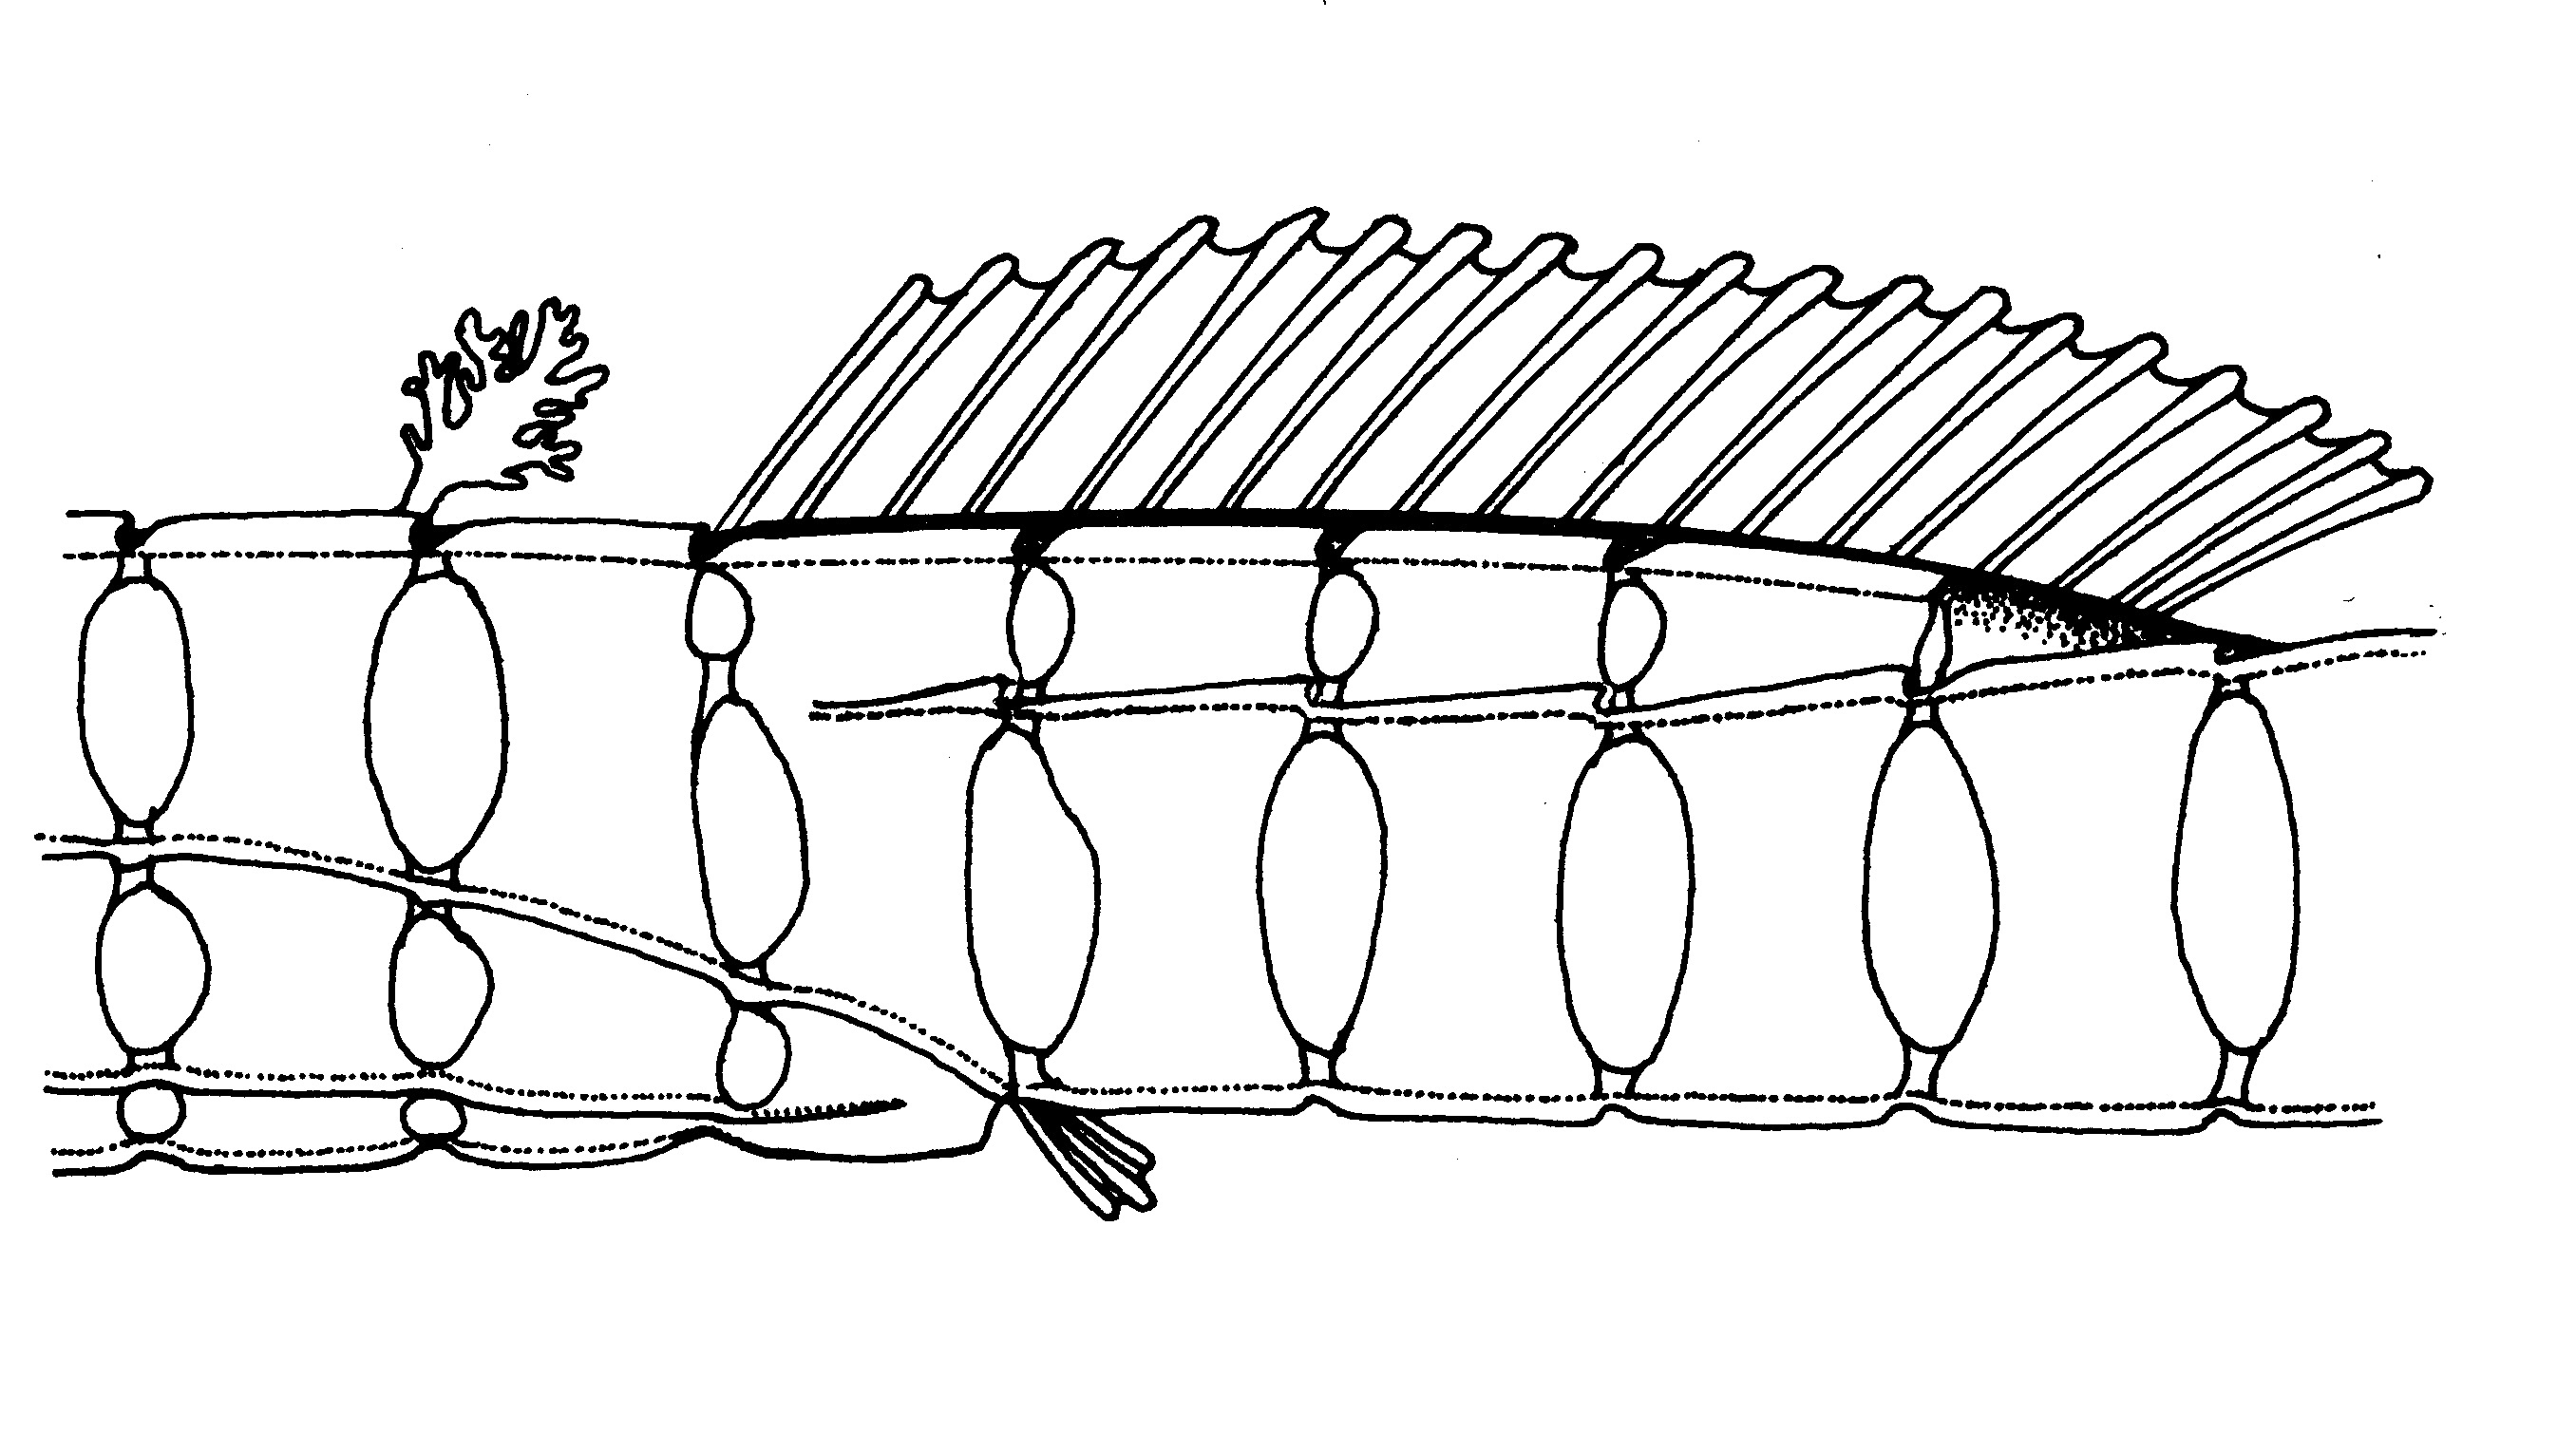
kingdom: Animalia
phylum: Chordata
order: Syngnathiformes
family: Syngnathidae
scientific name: Syngnathidae
